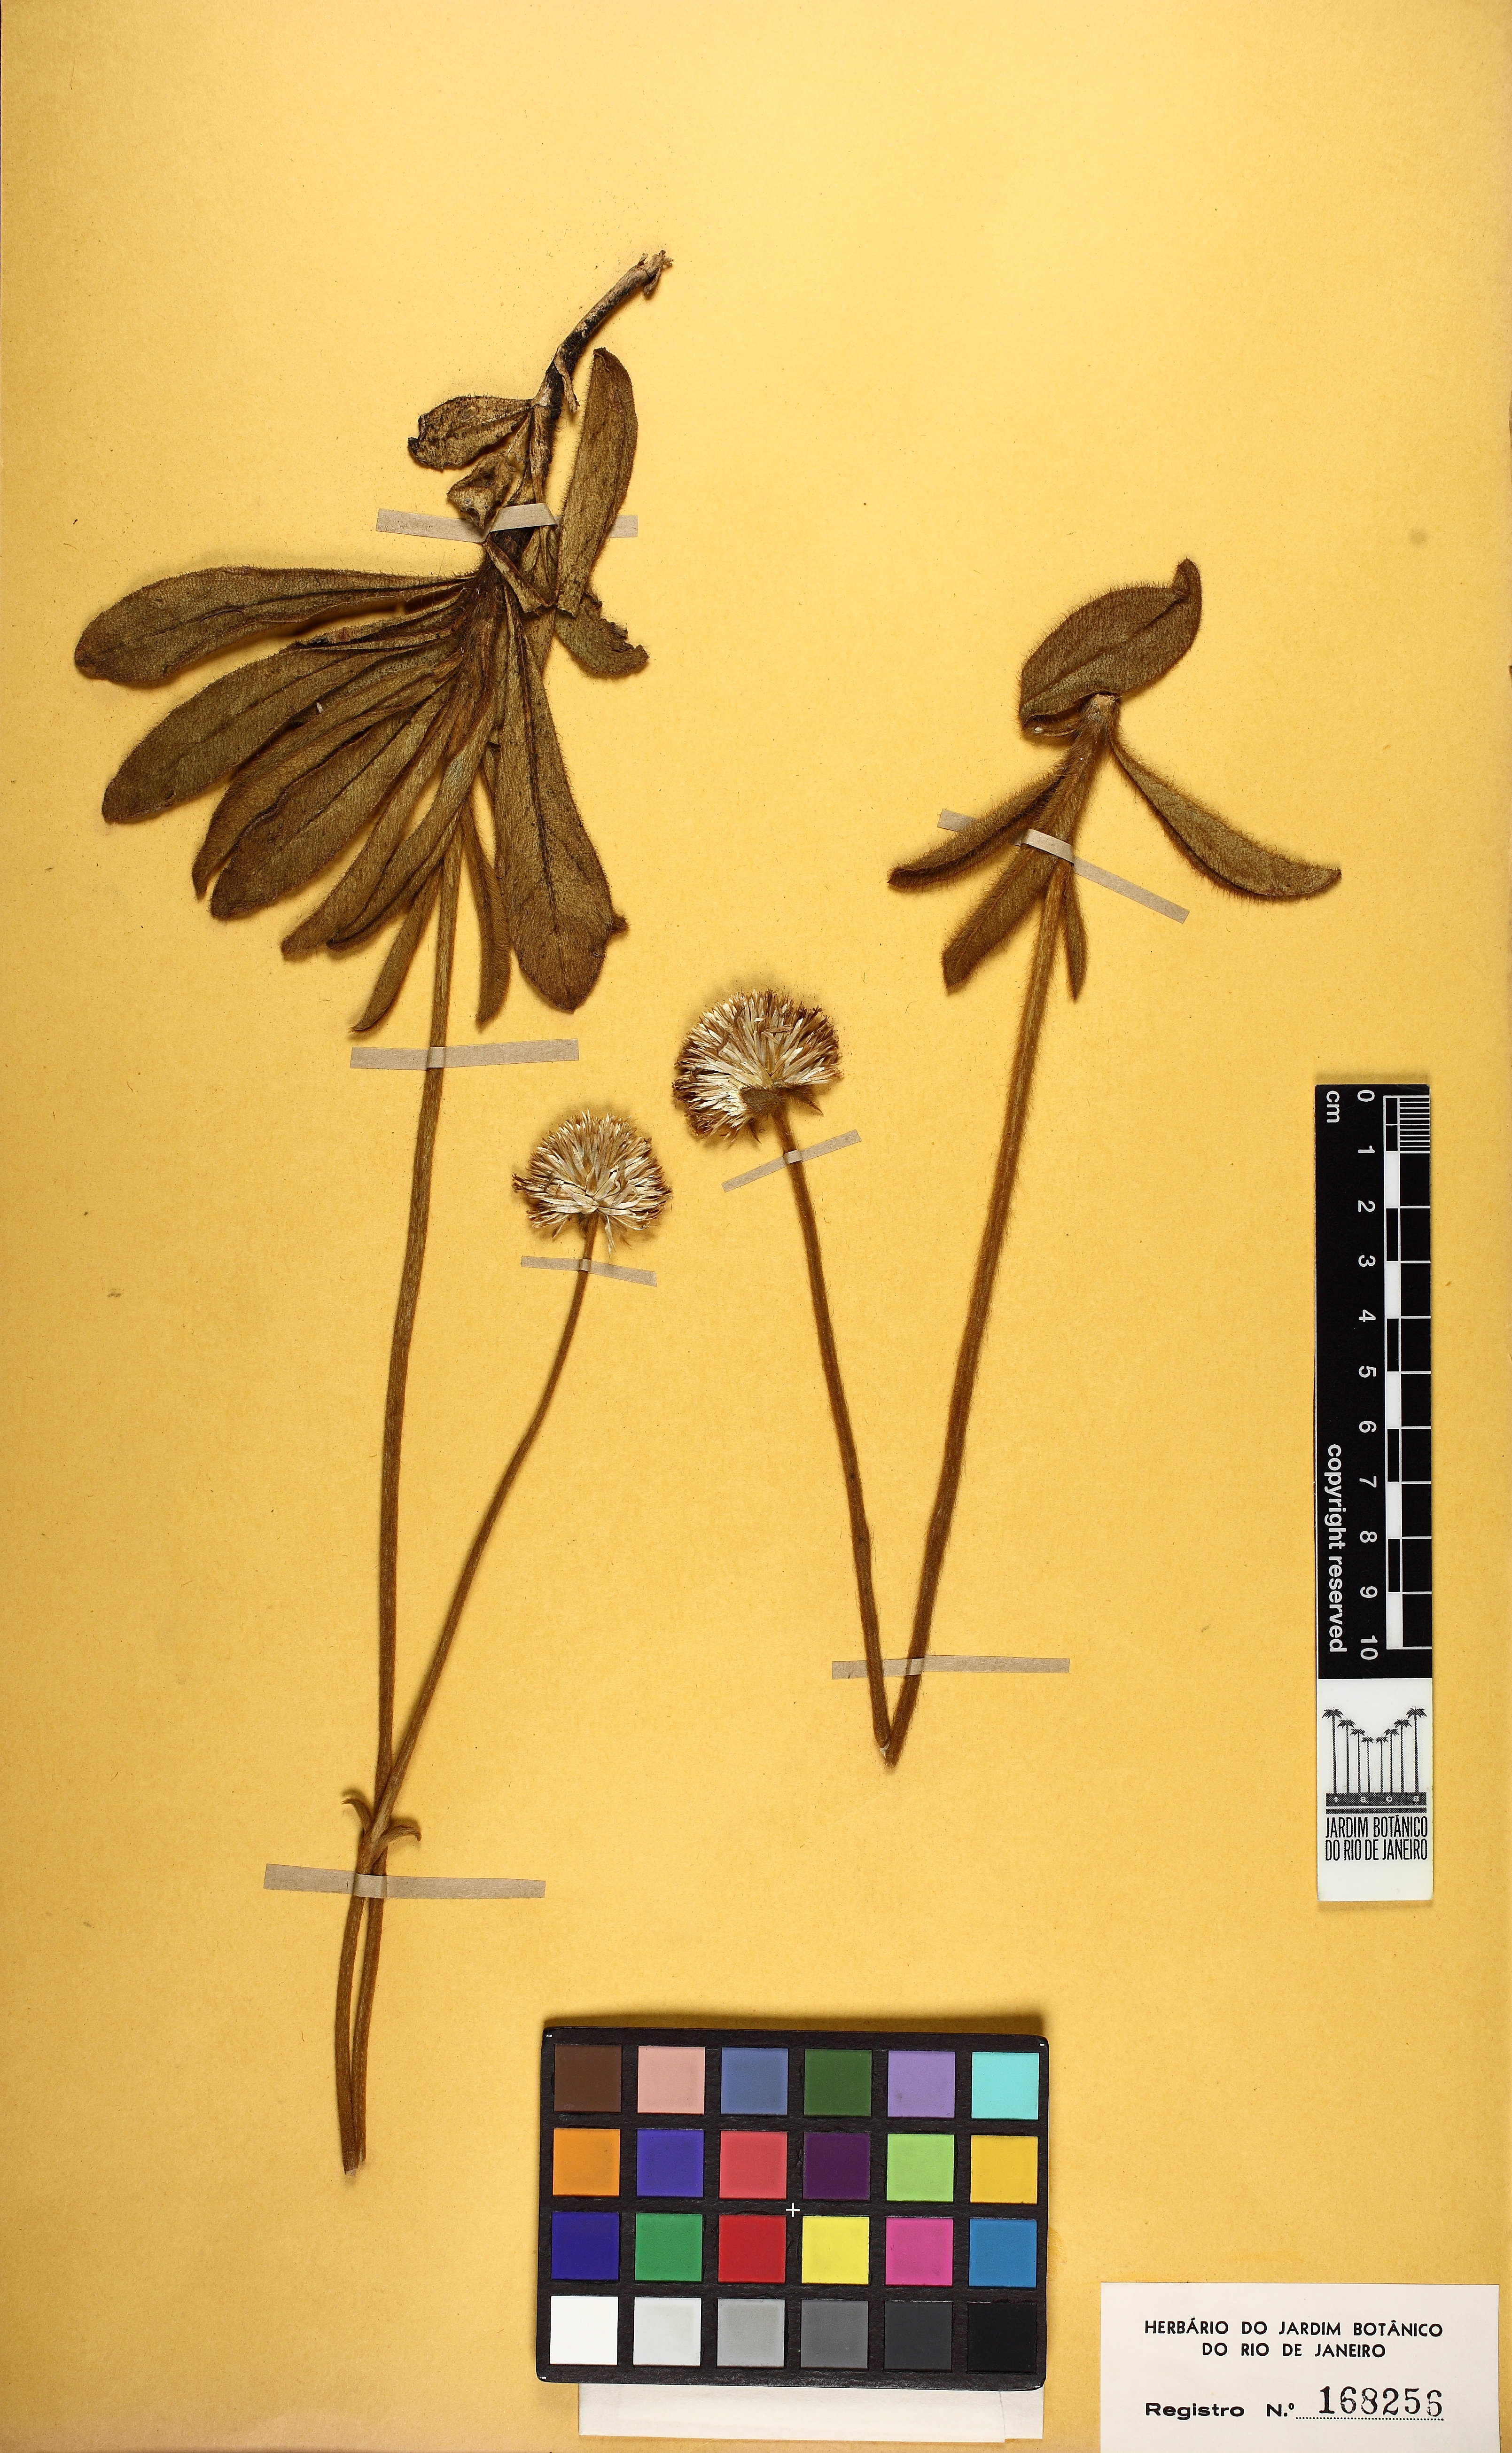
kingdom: Plantae
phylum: Tracheophyta
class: Magnoliopsida
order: Caryophyllales
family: Amaranthaceae
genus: Gomphrena
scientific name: Gomphrena tomentosa
